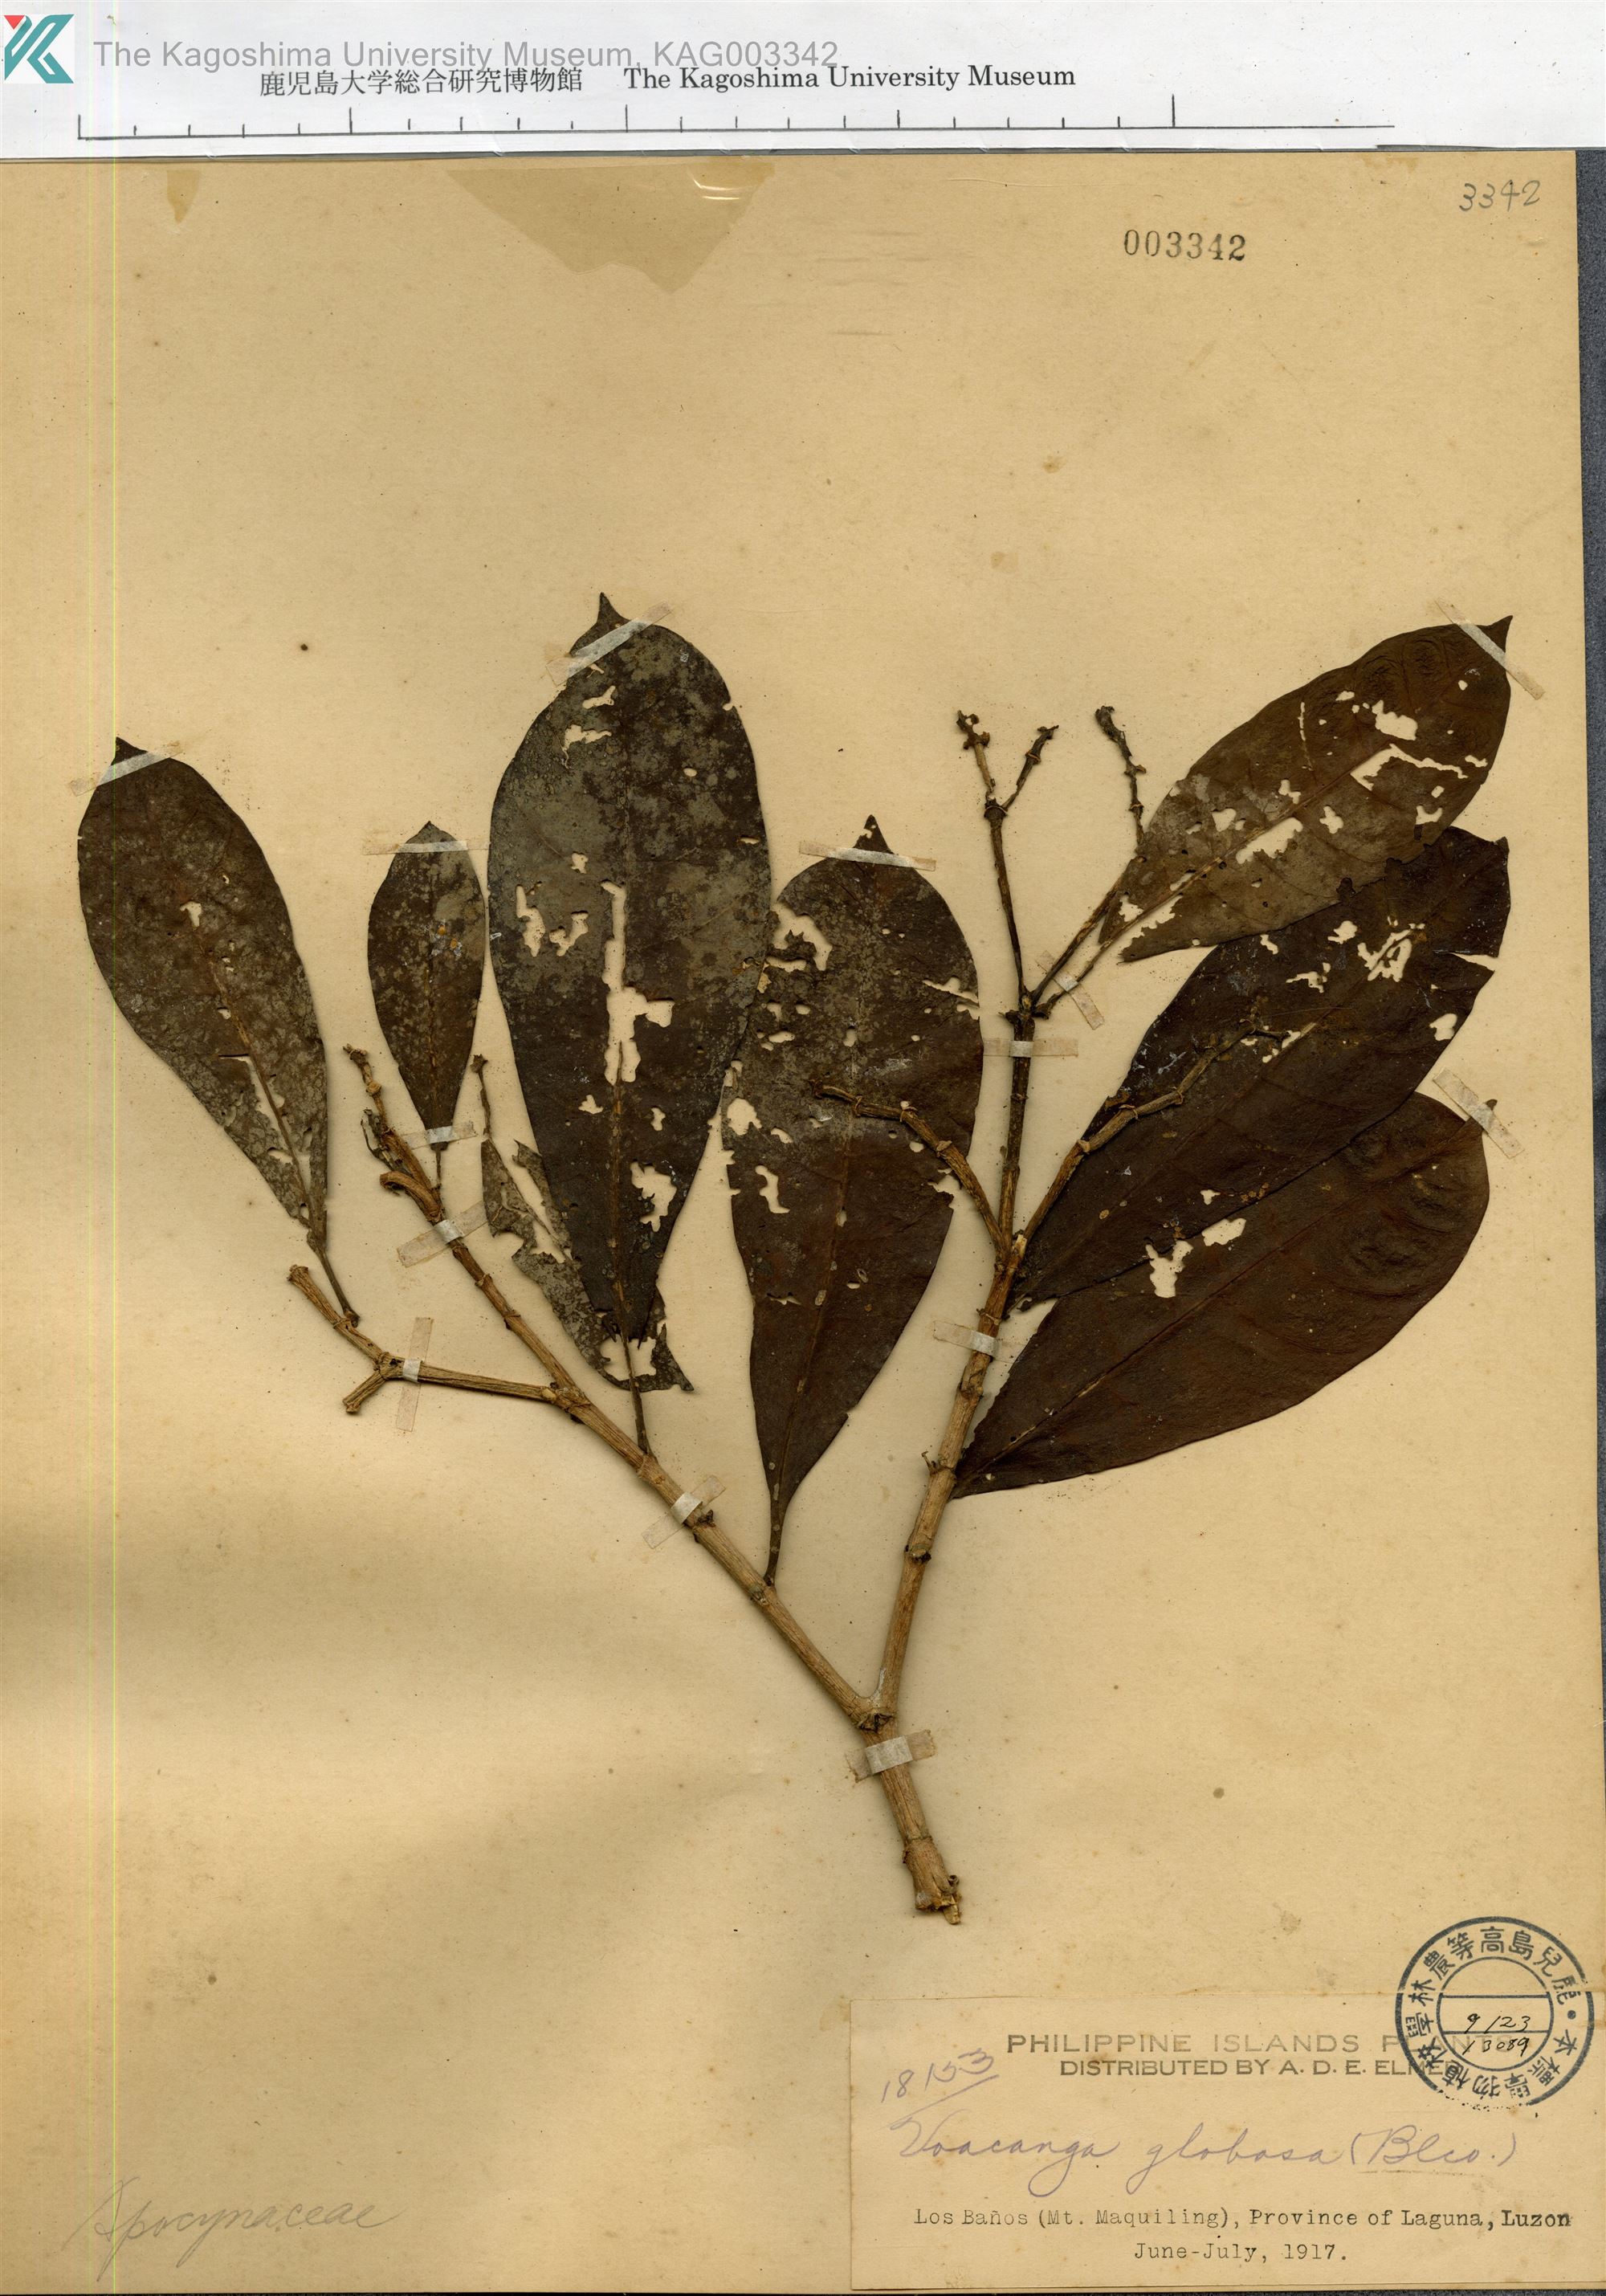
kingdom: Plantae
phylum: Tracheophyta
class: Magnoliopsida
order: Gentianales
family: Apocynaceae
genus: Voacanga
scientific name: Voacanga globosa
